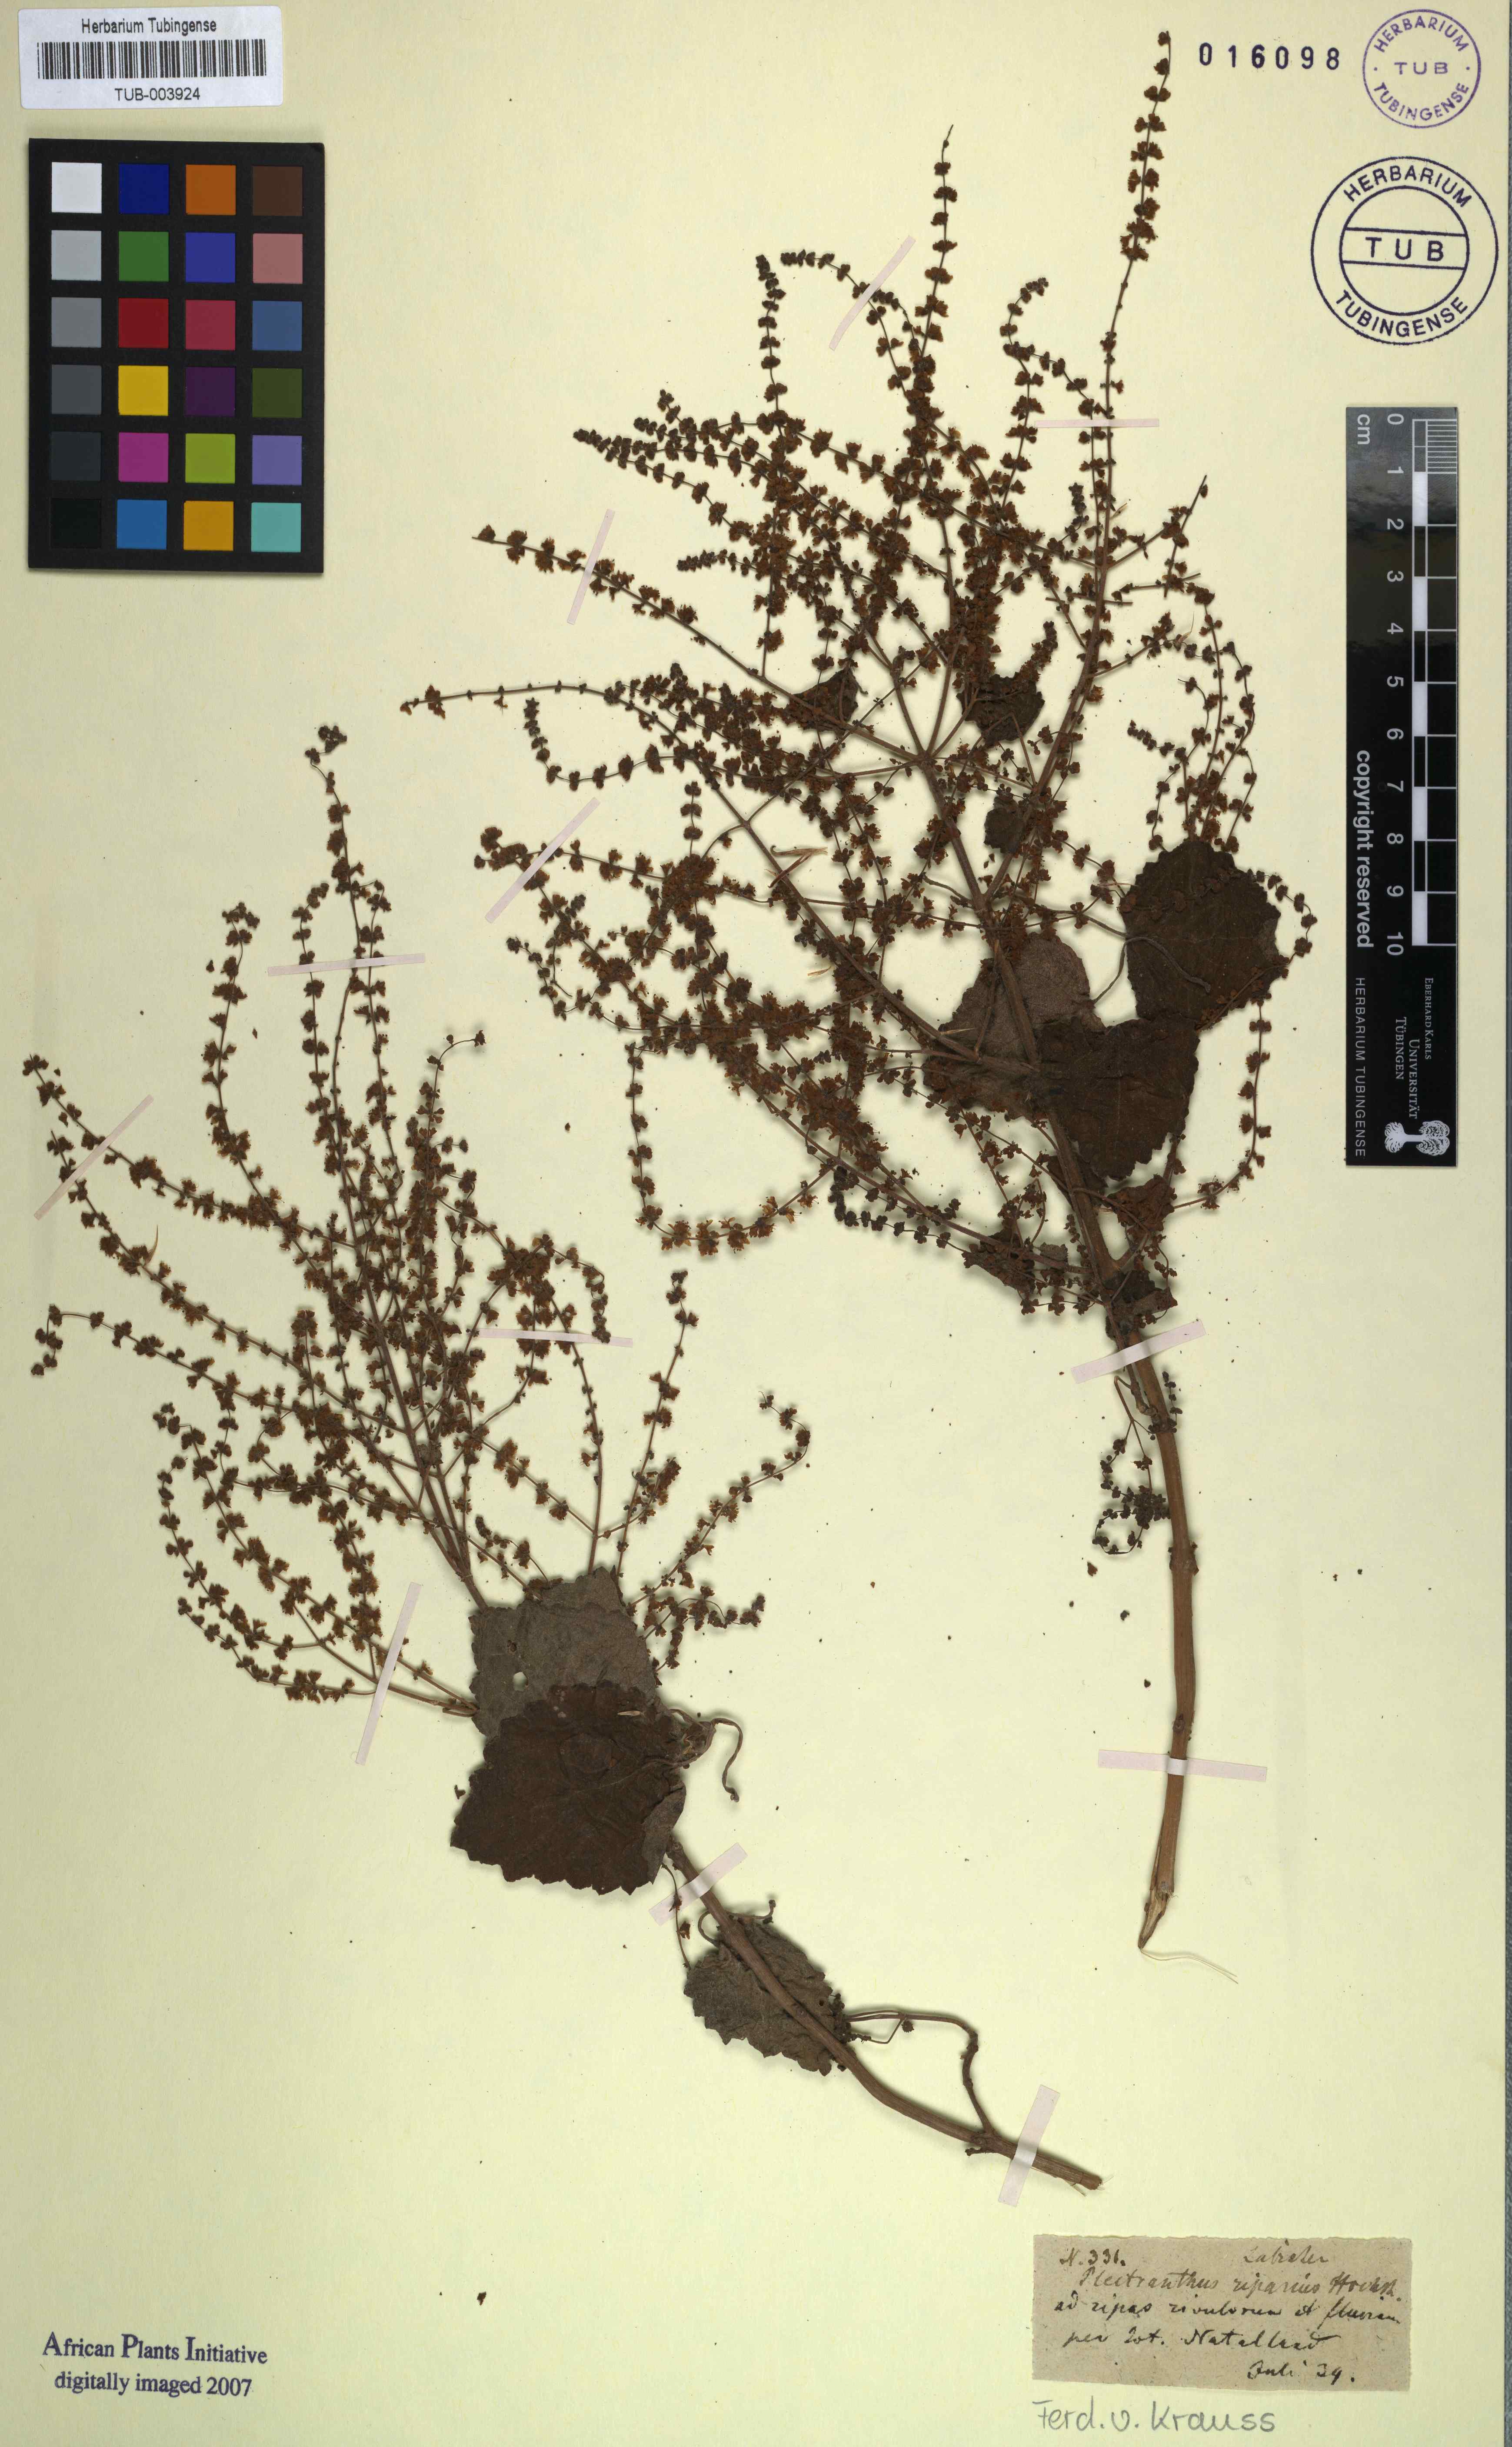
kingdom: Plantae
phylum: Tracheophyta
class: Magnoliopsida
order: Lamiales
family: Lamiaceae
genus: Tetradenia
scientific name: Tetradenia riparia
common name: Gingerbush
